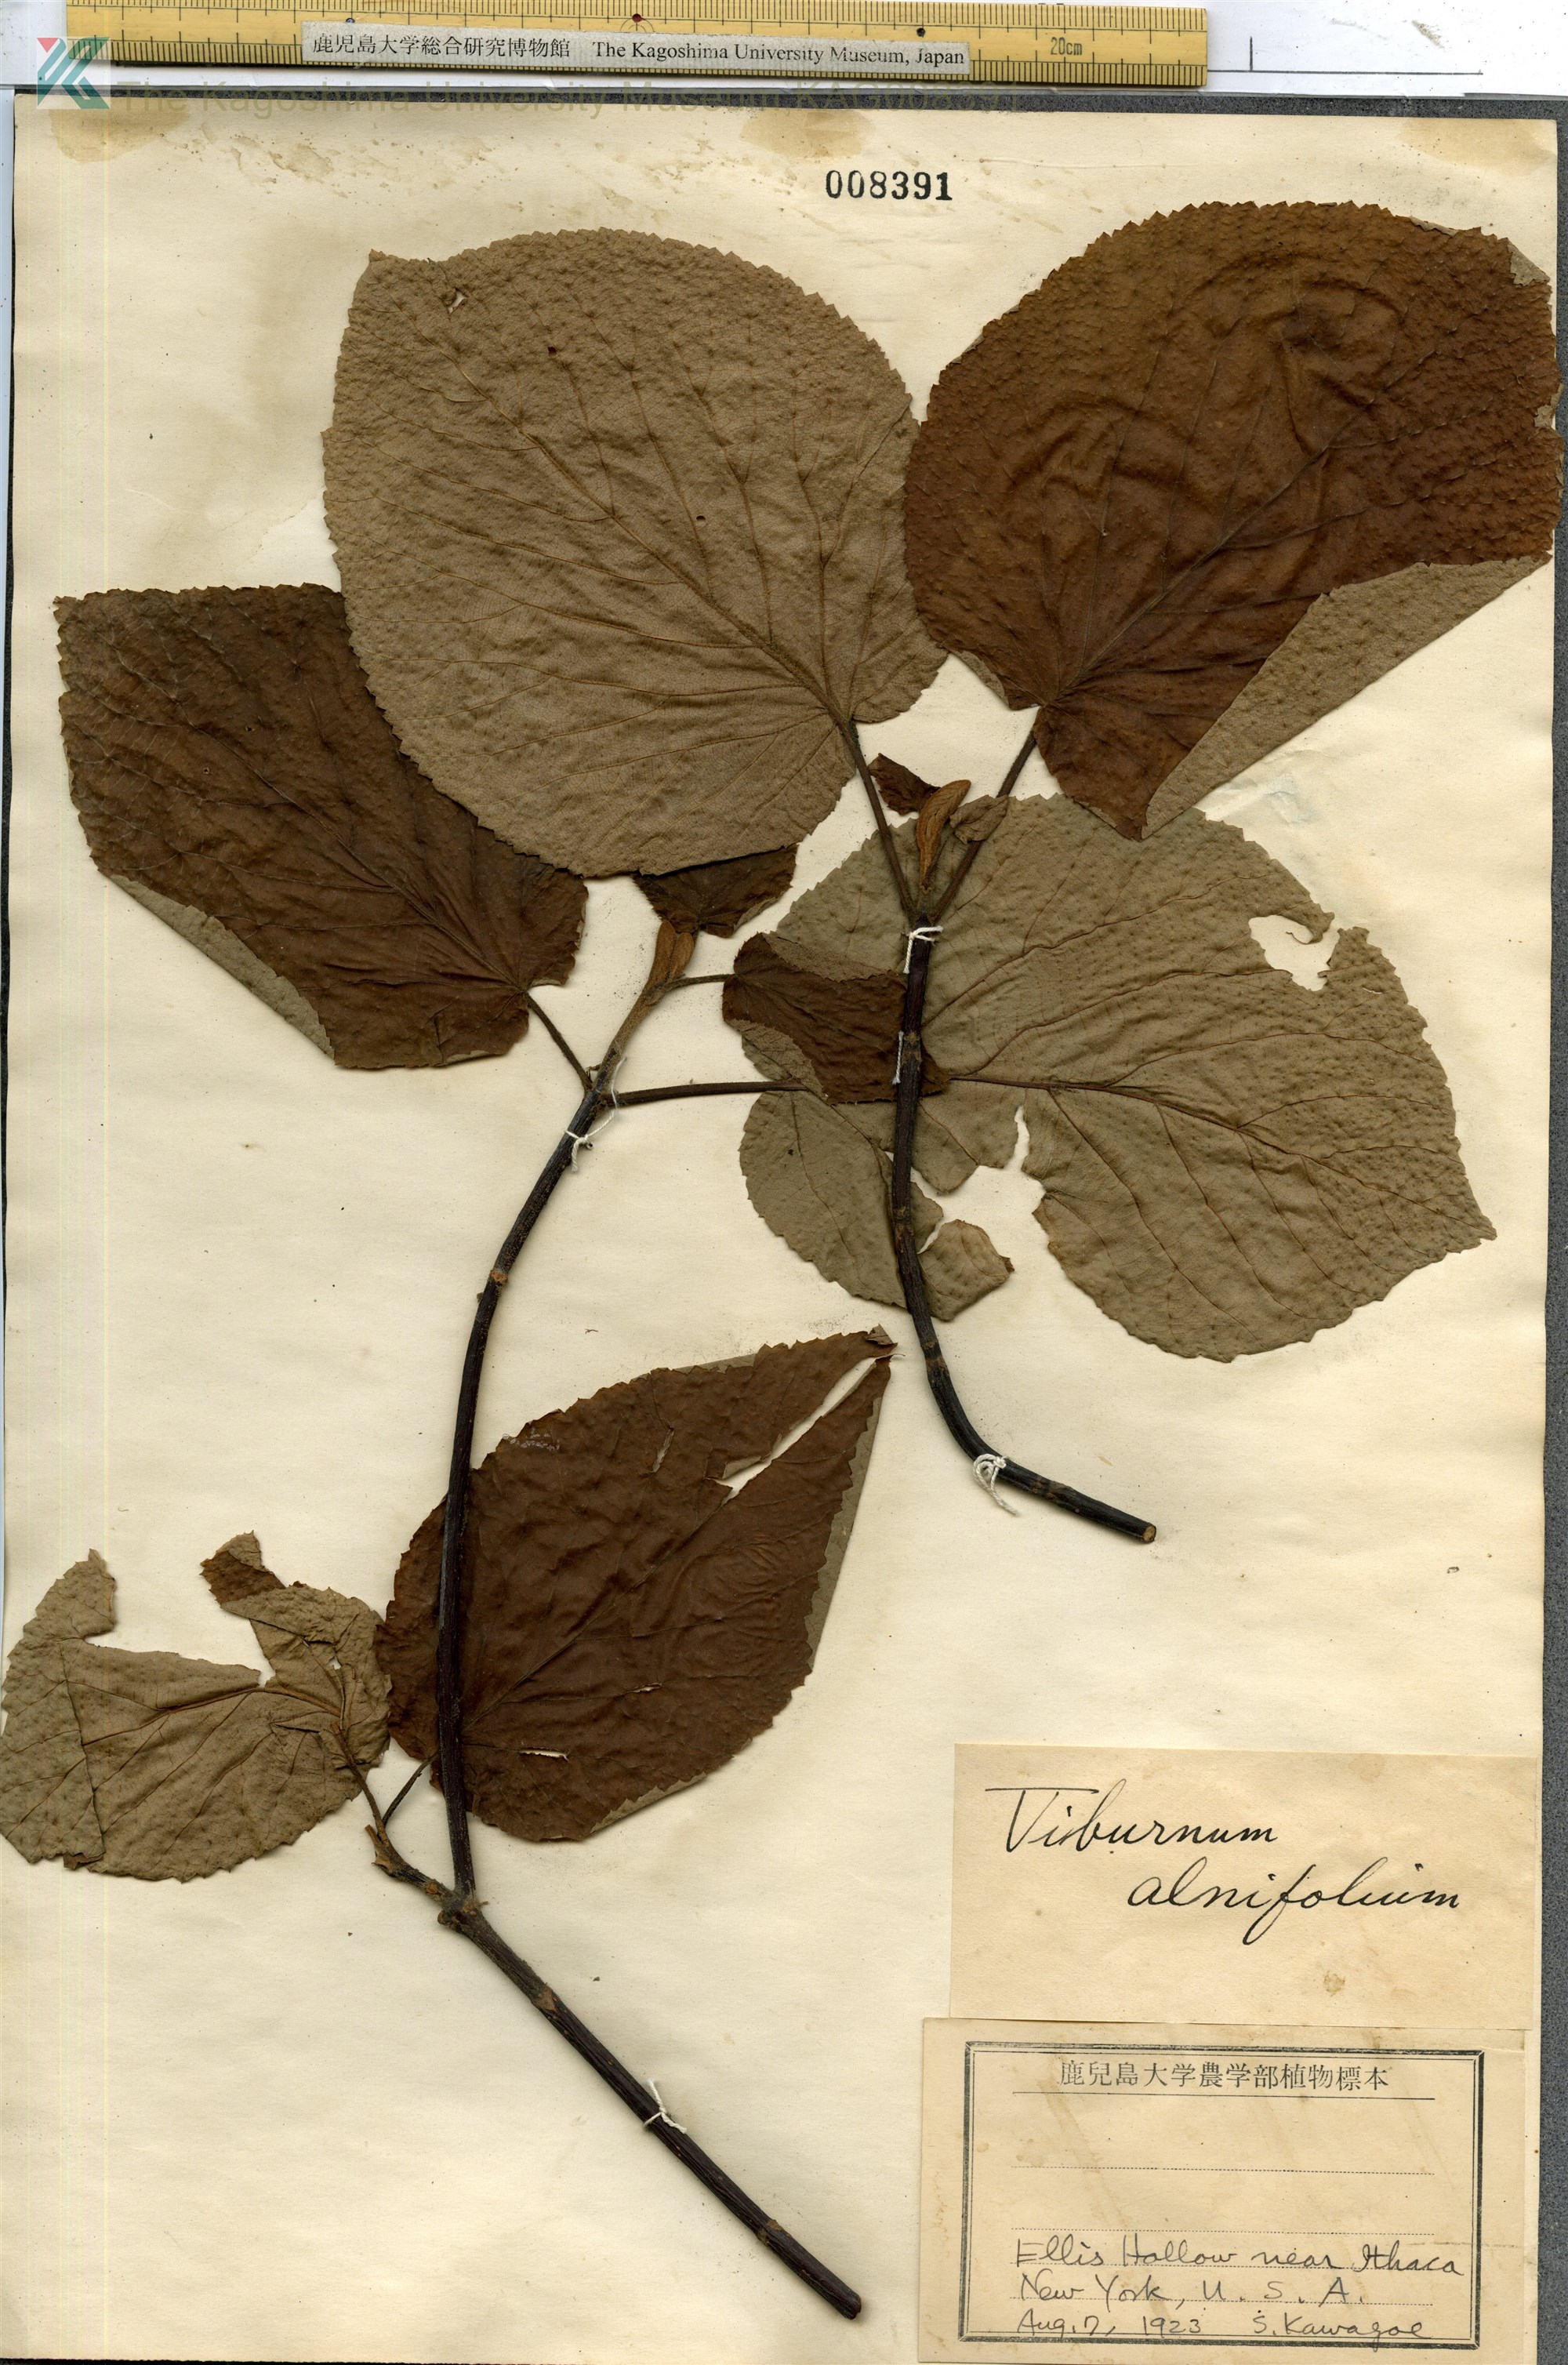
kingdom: Plantae
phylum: Tracheophyta
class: Magnoliopsida
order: Dipsacales
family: Viburnaceae
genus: Viburnum
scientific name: Viburnum lantanoides
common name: Hobblebush
